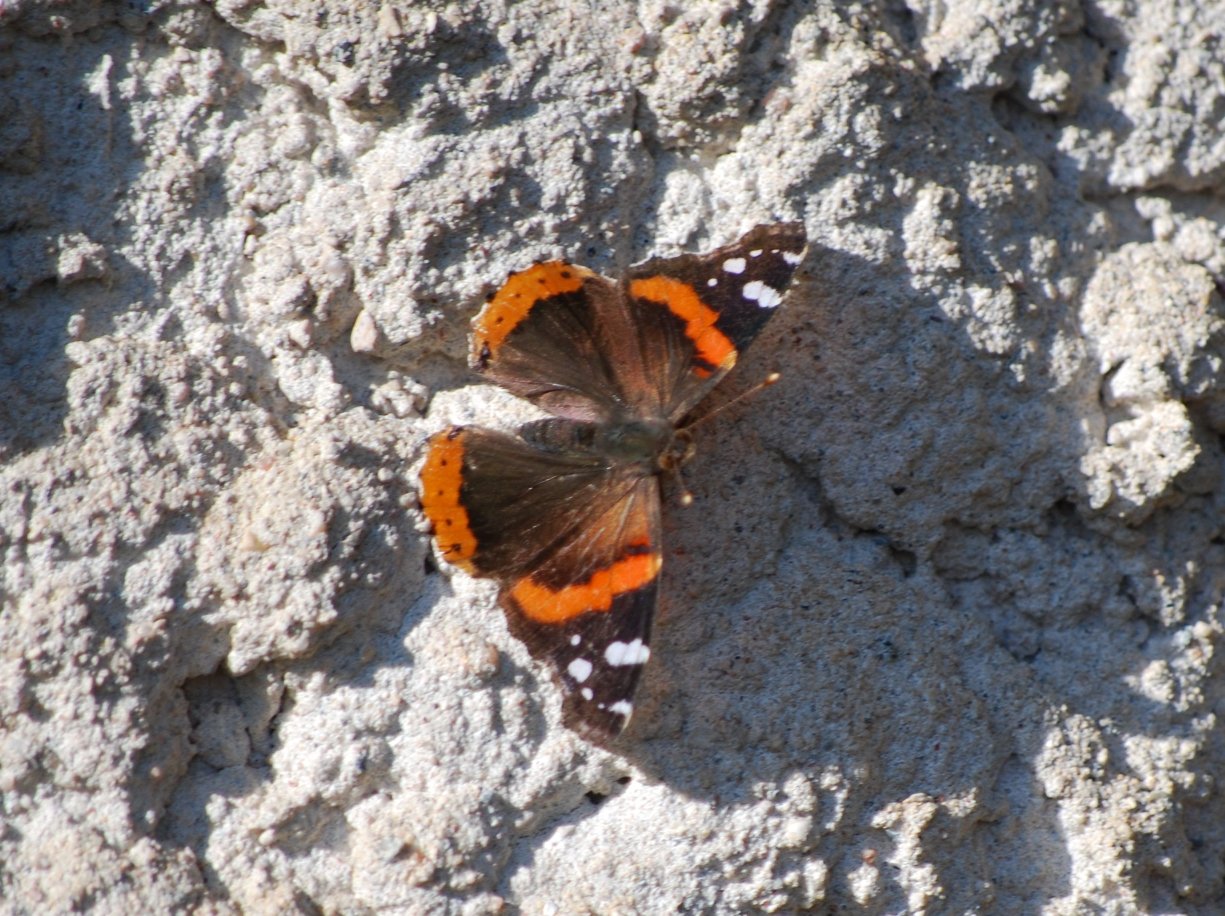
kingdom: Animalia
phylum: Arthropoda
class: Insecta
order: Lepidoptera
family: Nymphalidae
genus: Vanessa
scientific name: Vanessa atalanta
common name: Red Admiral
